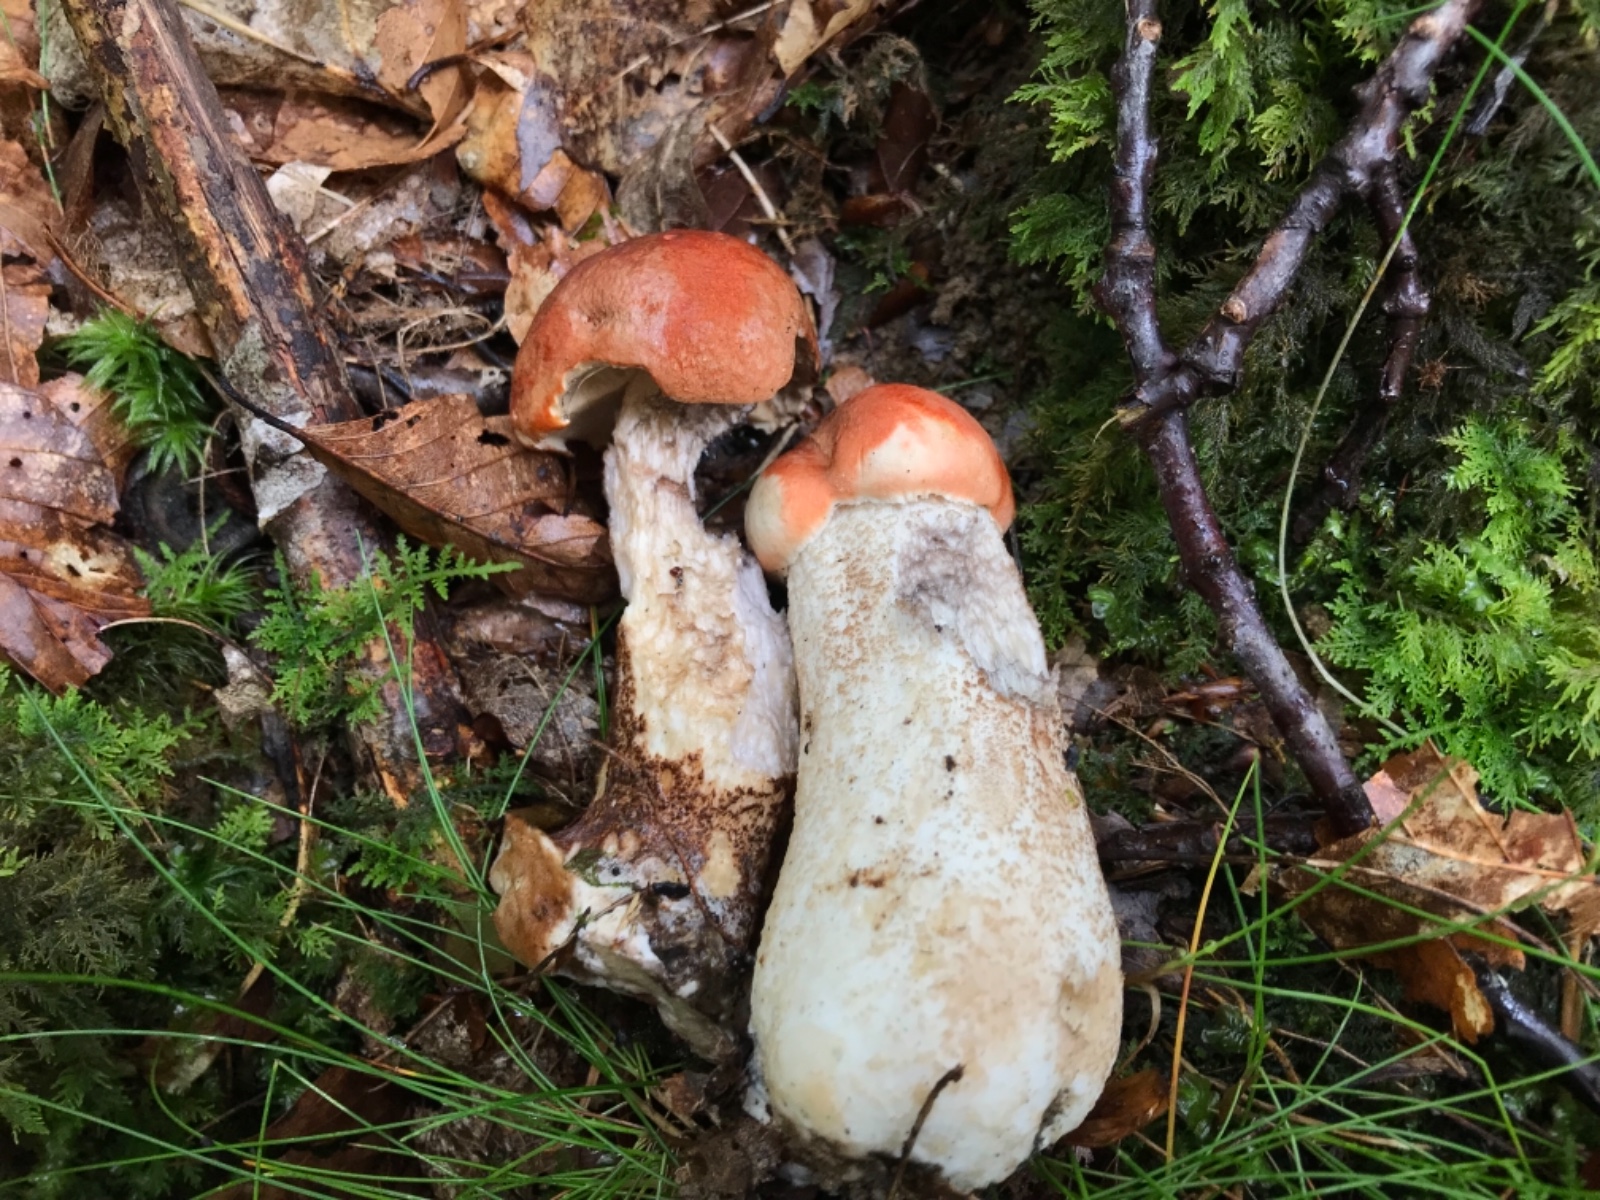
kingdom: Fungi
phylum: Basidiomycota
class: Agaricomycetes
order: Boletales
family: Boletaceae
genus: Leccinum
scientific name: Leccinum aurantiacum
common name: rustrød skælrørhat
